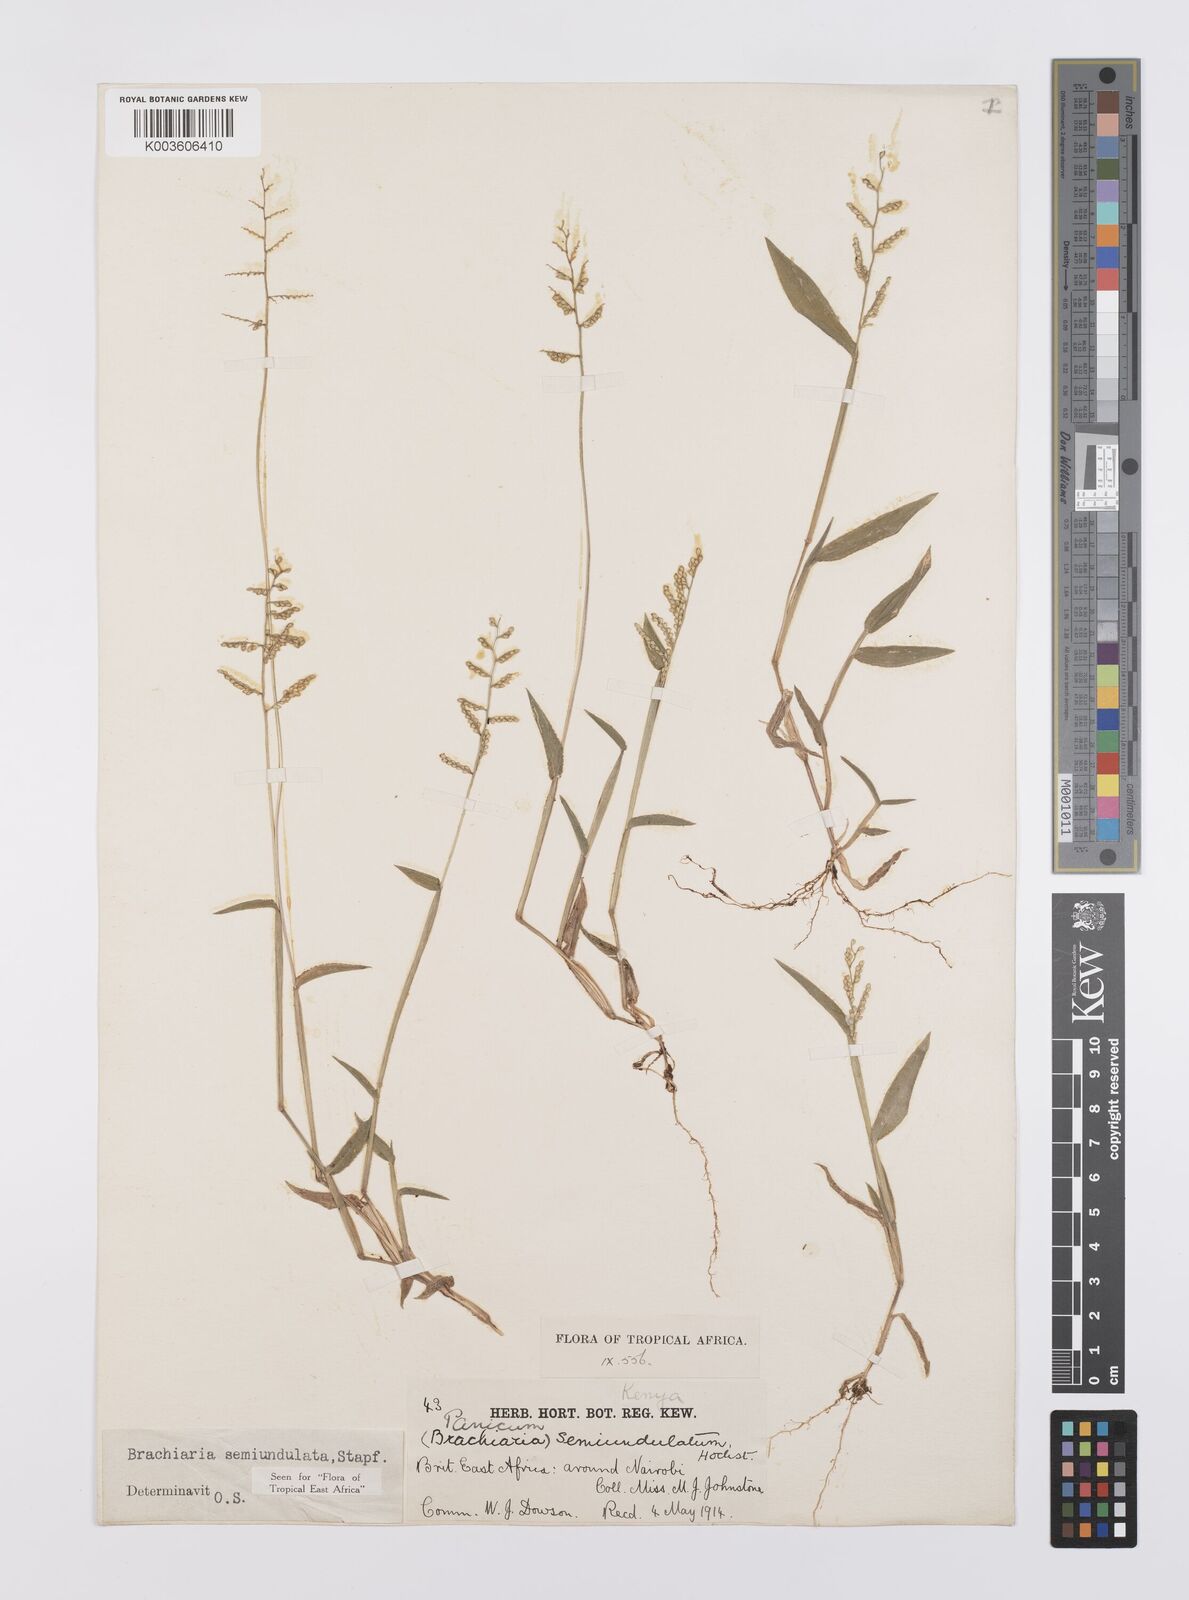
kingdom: Plantae
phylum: Tracheophyta
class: Liliopsida
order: Poales
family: Poaceae
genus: Urochloa
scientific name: Urochloa semiundulata
